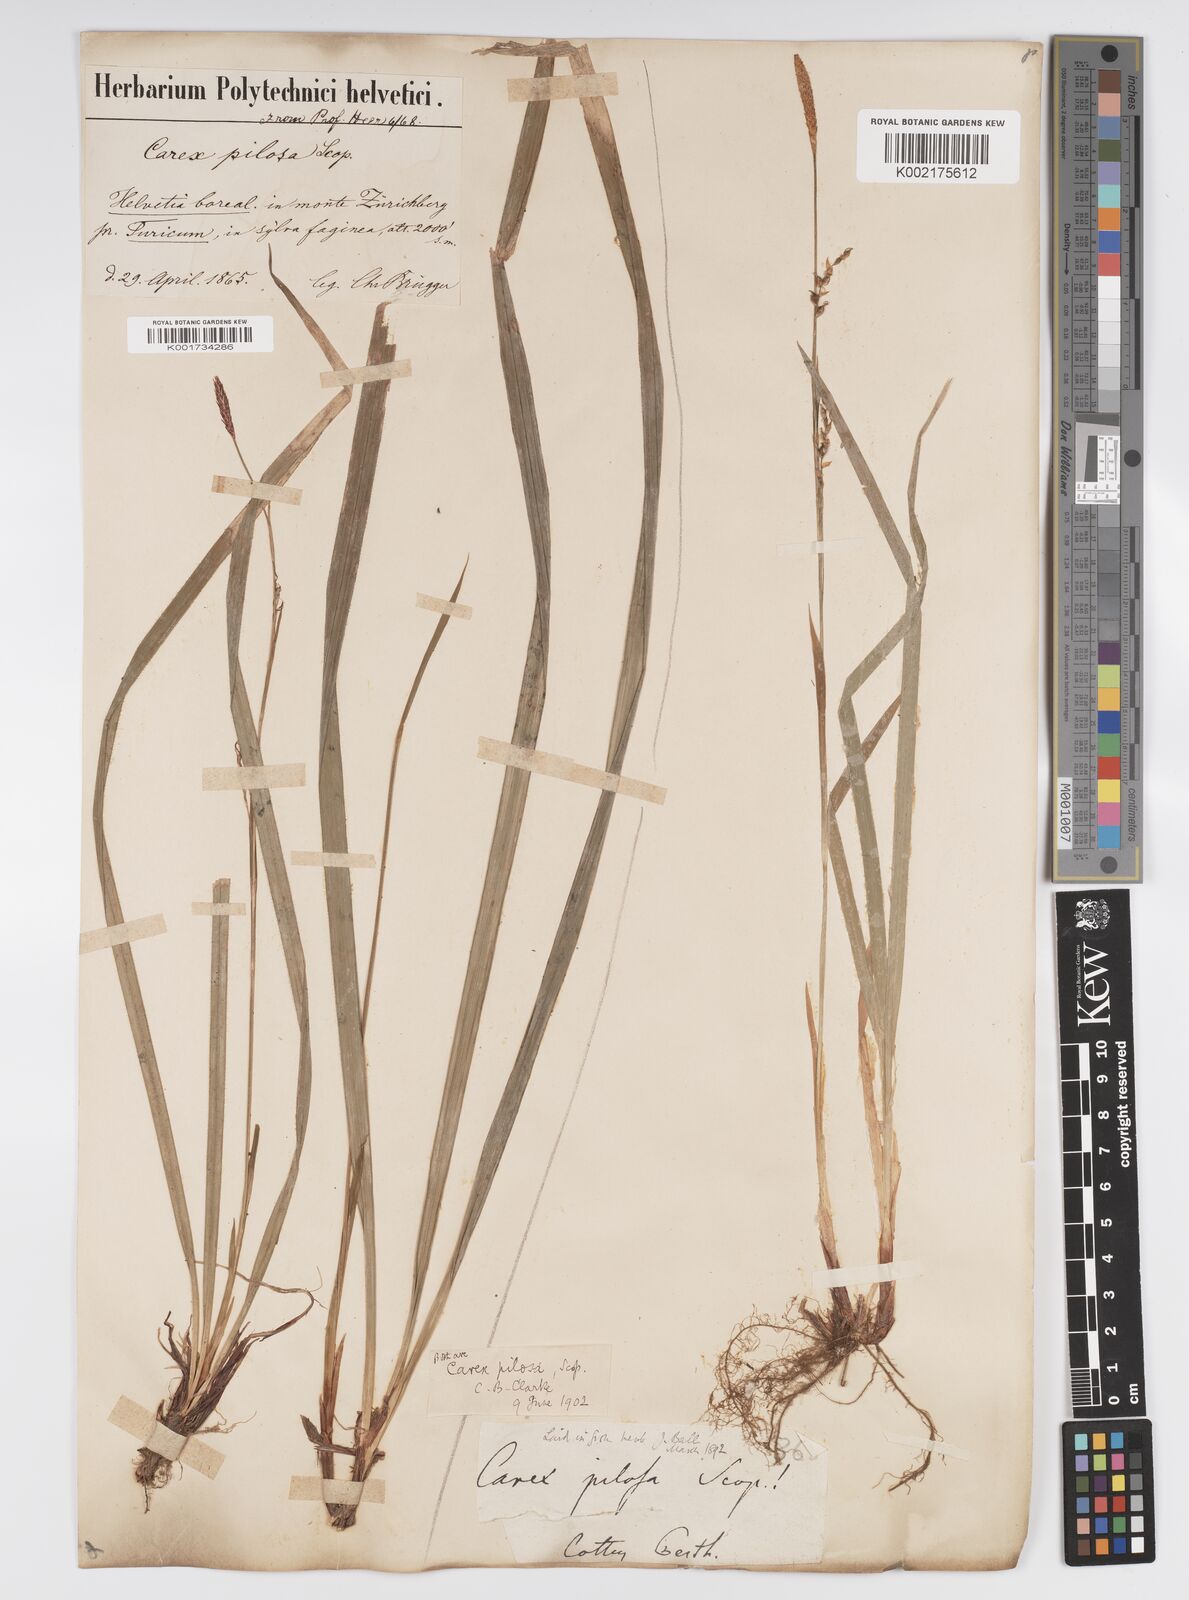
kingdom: Plantae
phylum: Tracheophyta
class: Liliopsida
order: Poales
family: Cyperaceae
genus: Carex
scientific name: Carex pilosa
